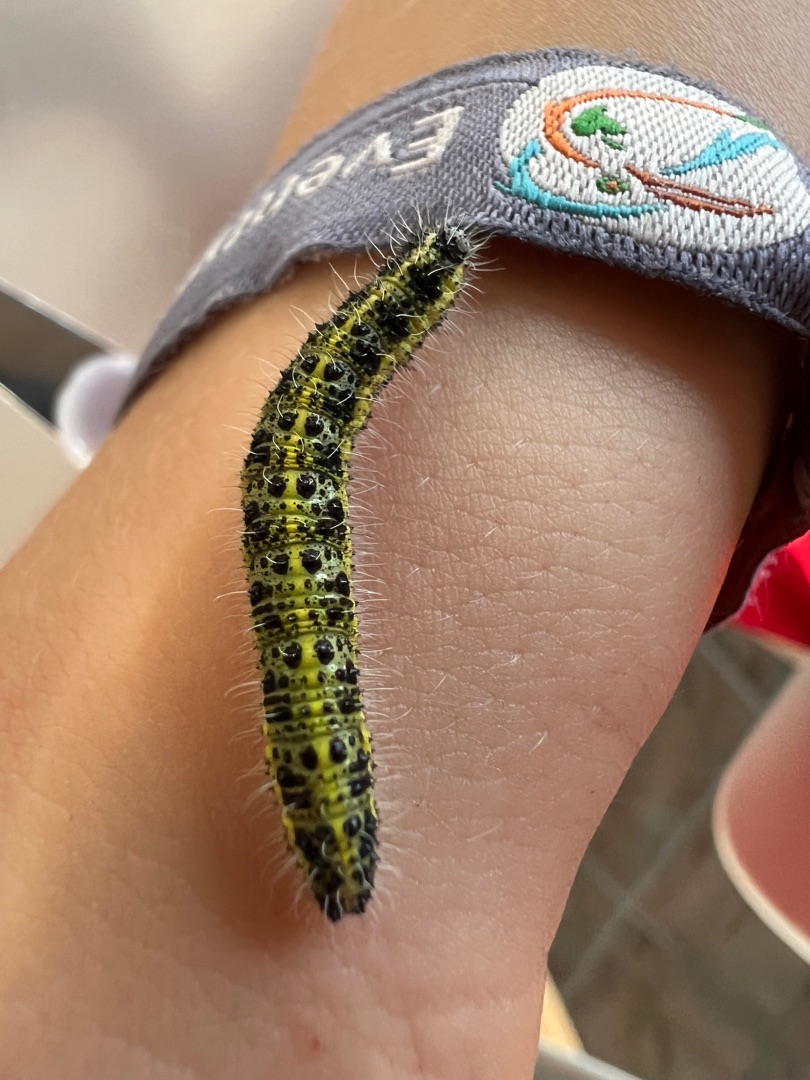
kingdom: Animalia
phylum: Arthropoda
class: Insecta
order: Lepidoptera
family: Pieridae
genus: Pieris
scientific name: Pieris brassicae
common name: Stor kålsommerfugl
